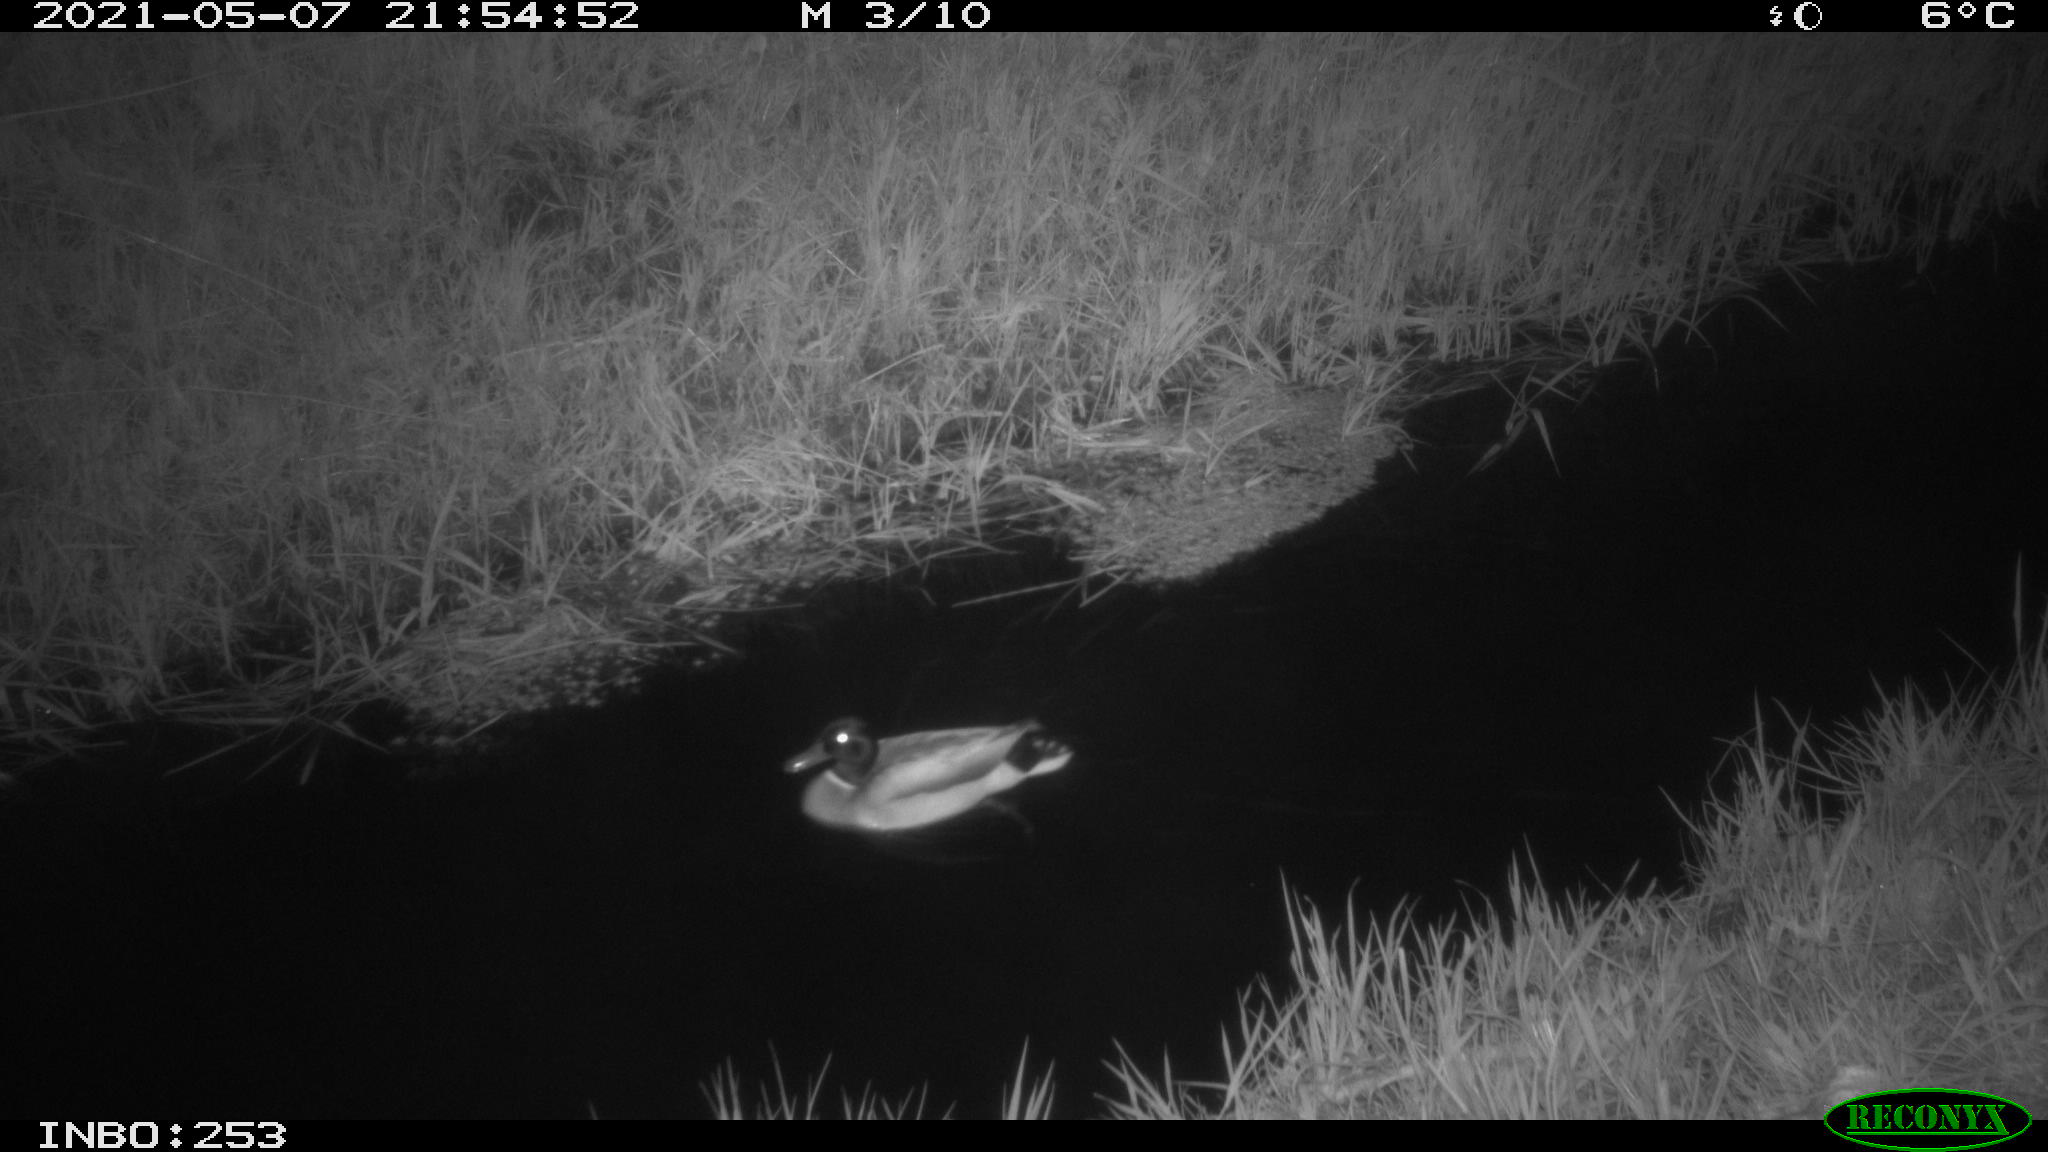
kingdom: Animalia
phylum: Chordata
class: Aves
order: Anseriformes
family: Anatidae
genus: Anas
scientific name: Anas platyrhynchos
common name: Mallard
